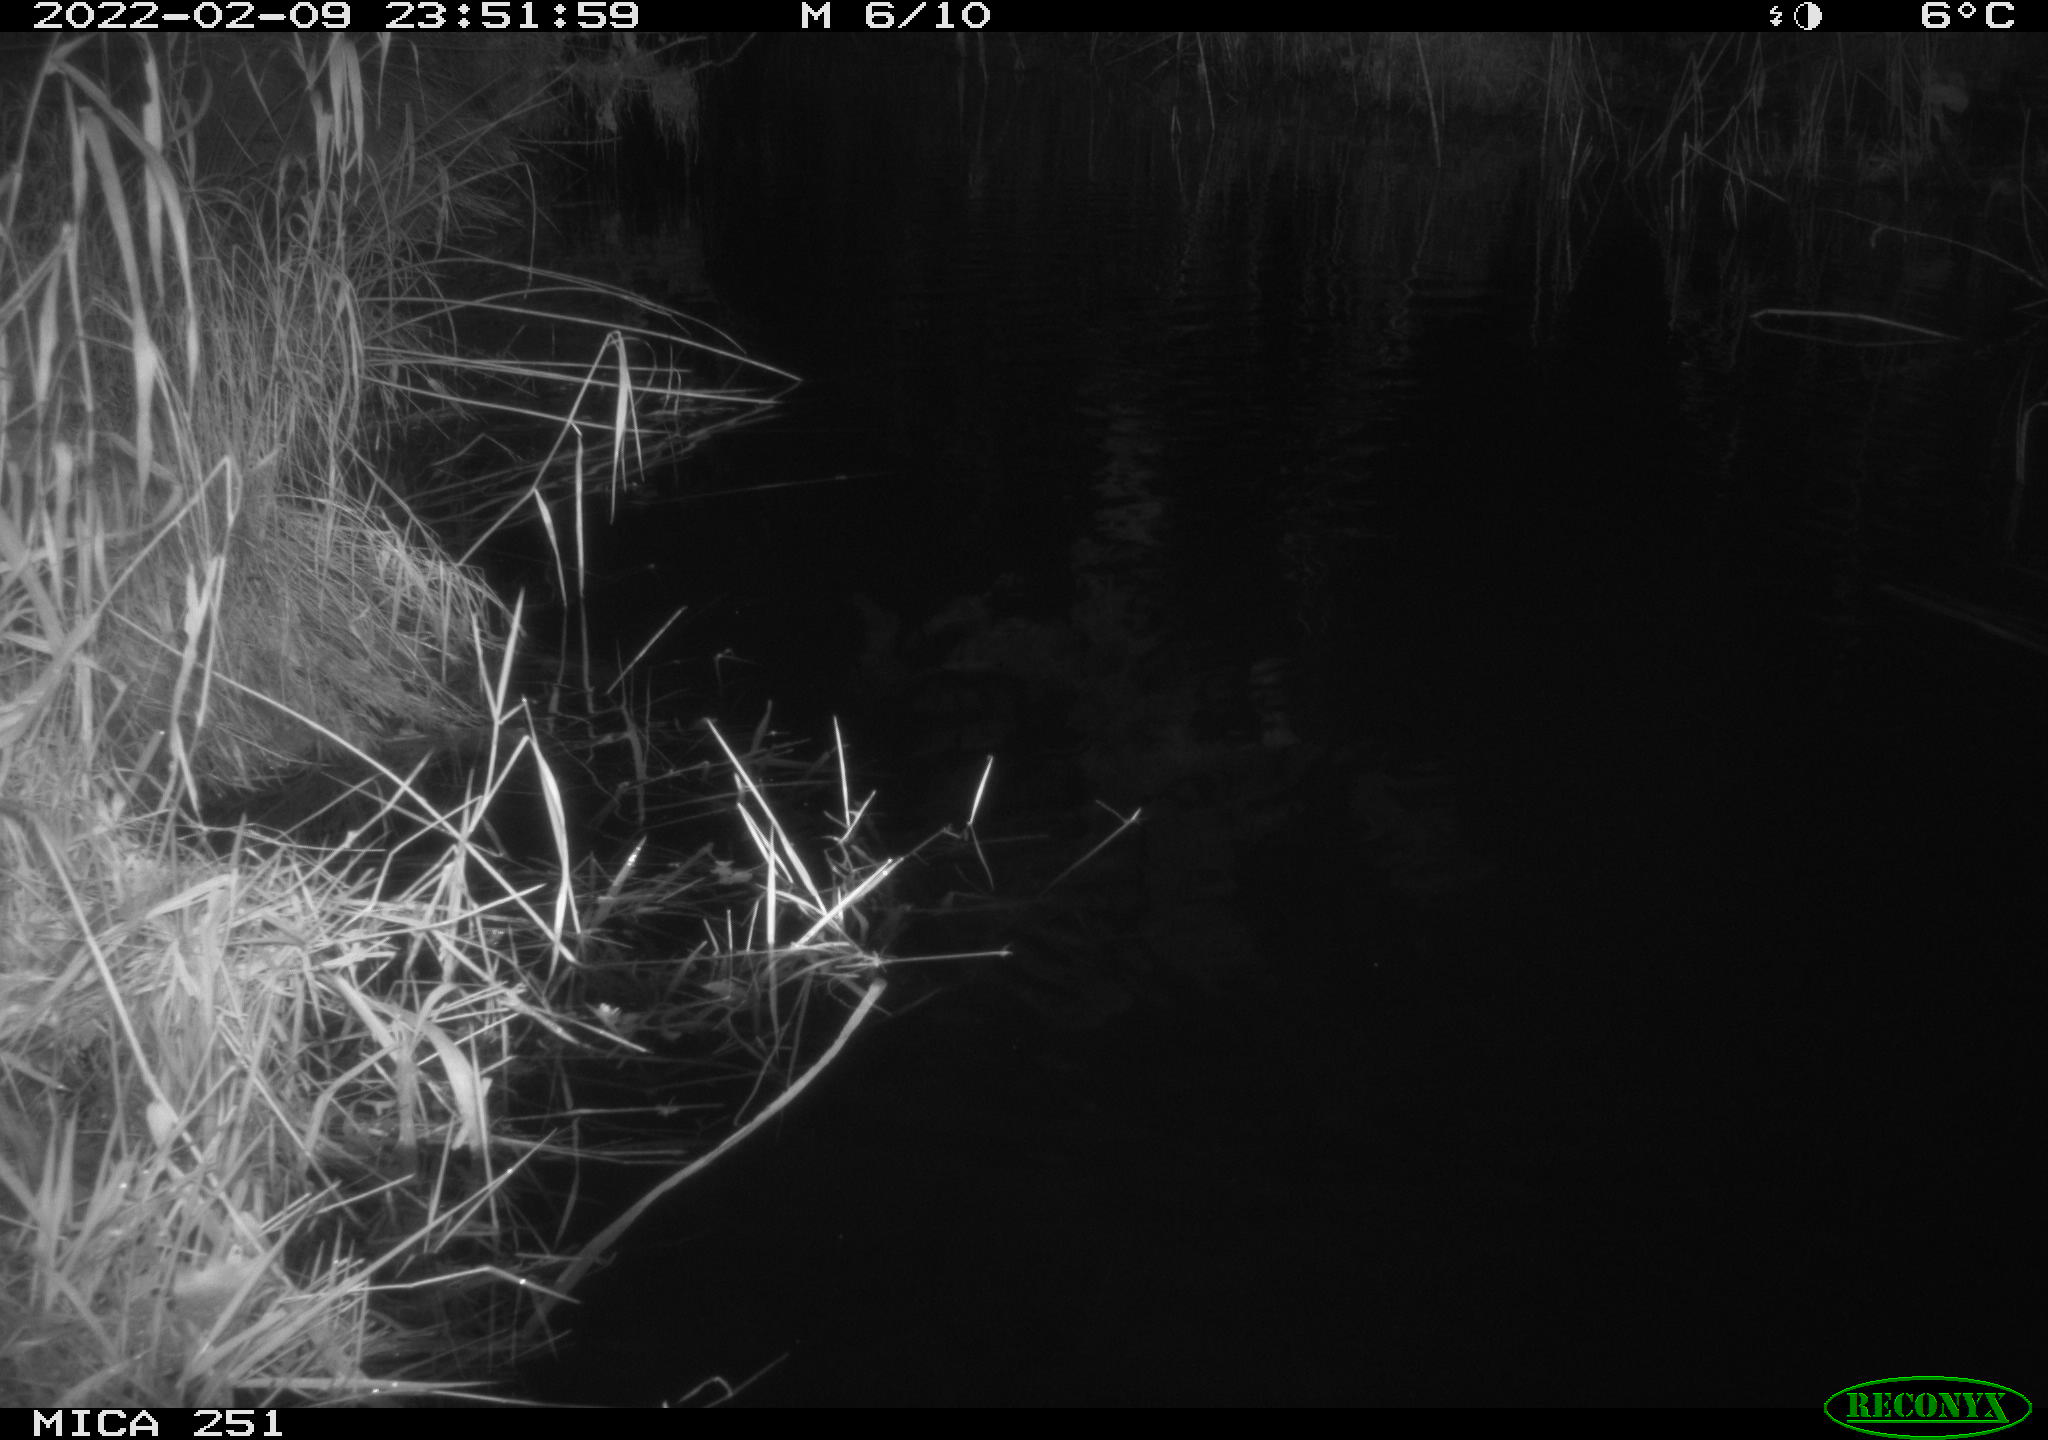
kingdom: Animalia
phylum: Chordata
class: Aves
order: Anseriformes
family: Anatidae
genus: Anas
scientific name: Anas crecca
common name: Eurasian teal
